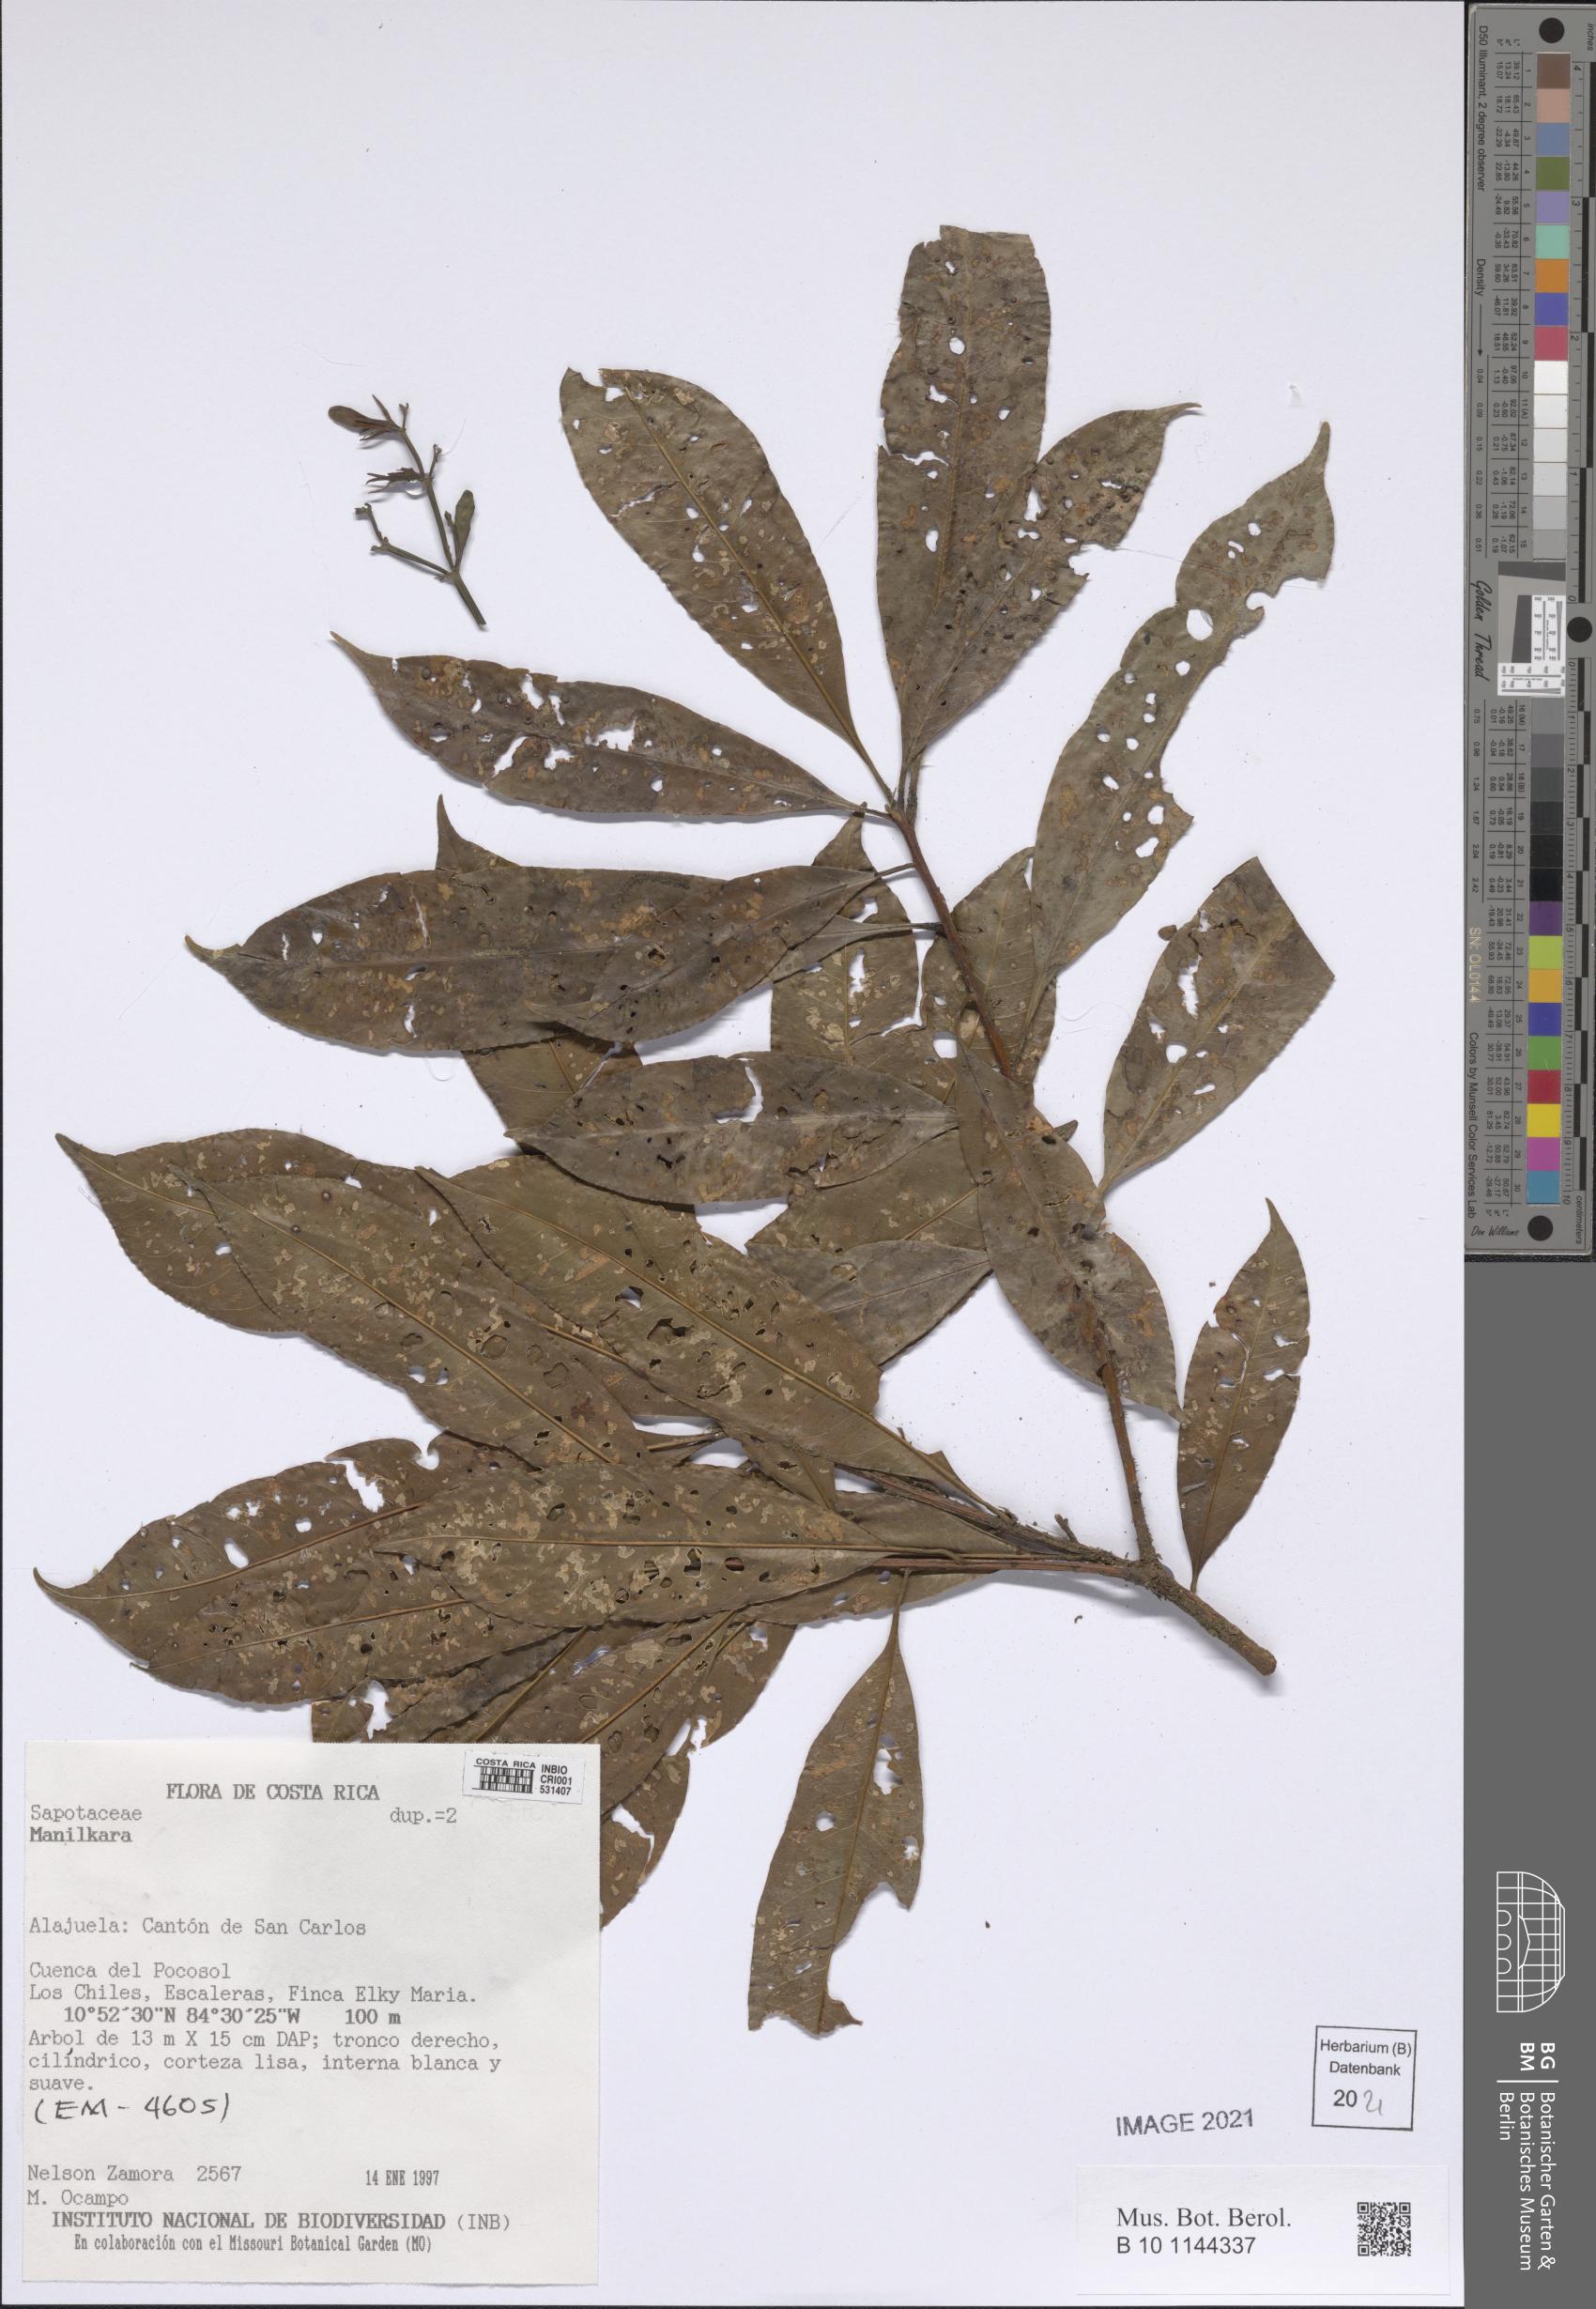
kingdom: Plantae
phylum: Tracheophyta
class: Magnoliopsida
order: Ericales
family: Sapotaceae
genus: Manilkara
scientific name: Manilkara
